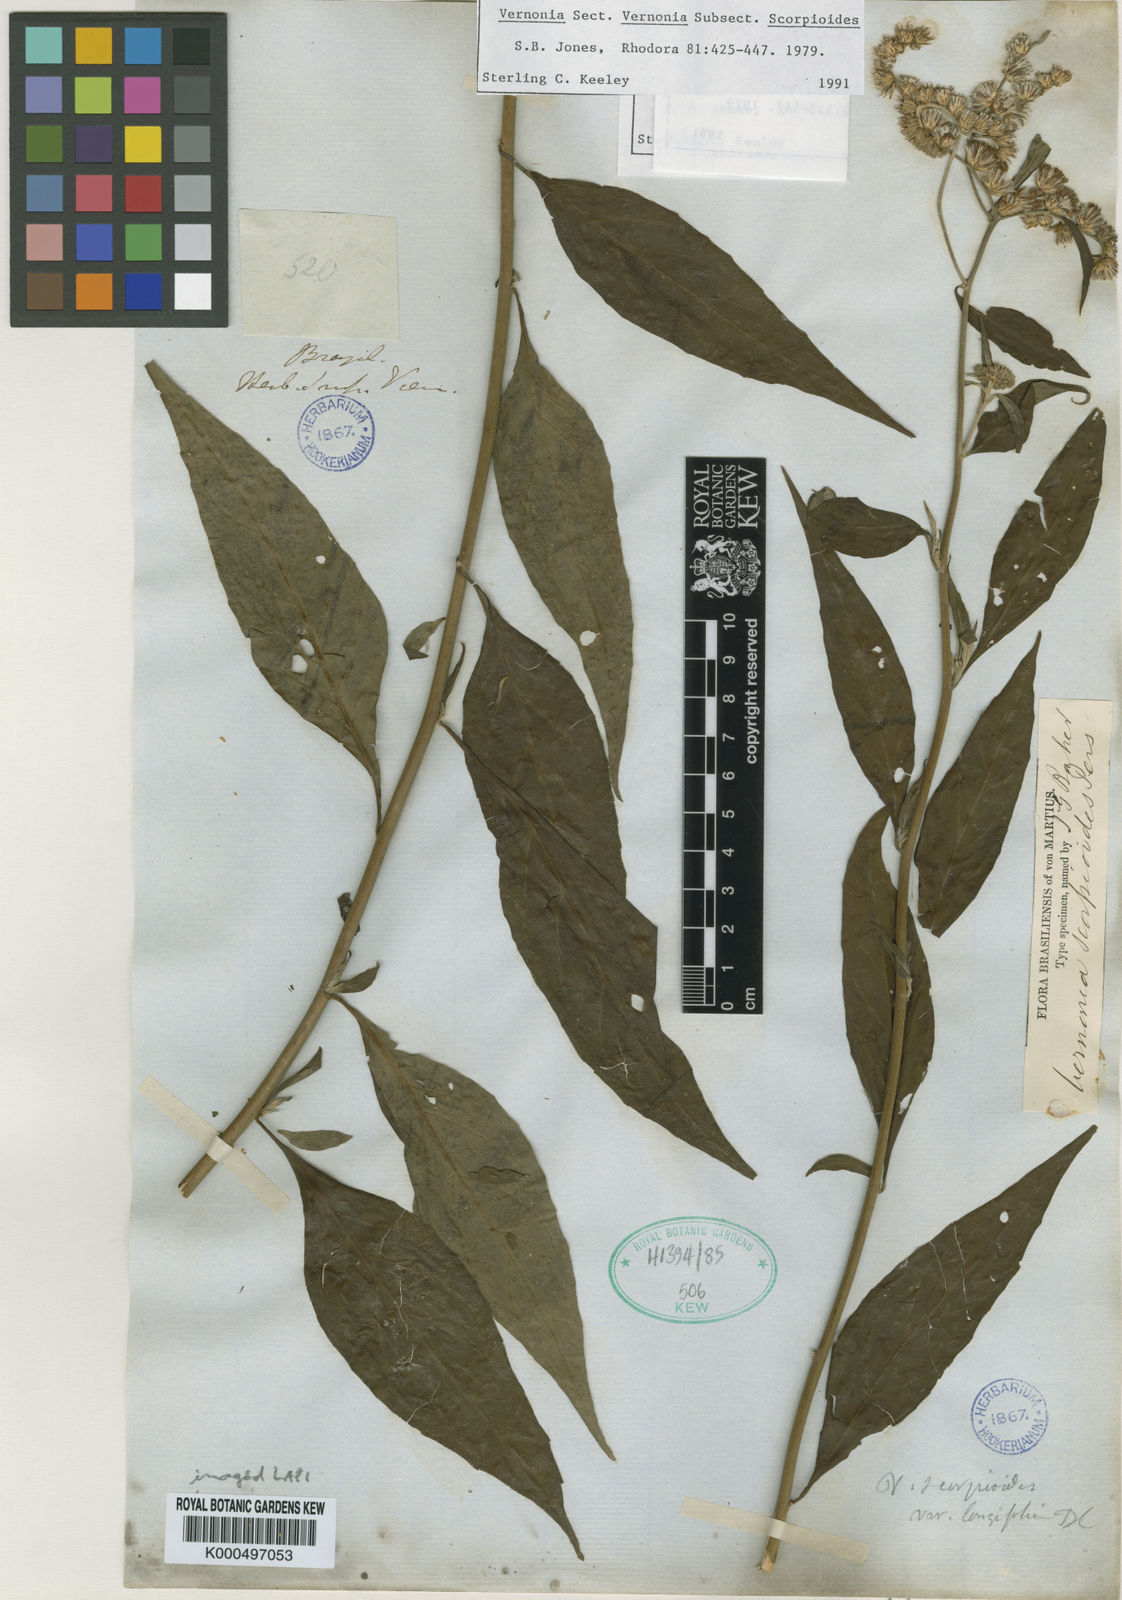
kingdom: Plantae
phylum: Tracheophyta
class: Magnoliopsida
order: Asterales
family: Asteraceae
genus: Cyrtocymura
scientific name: Cyrtocymura scorpioides
